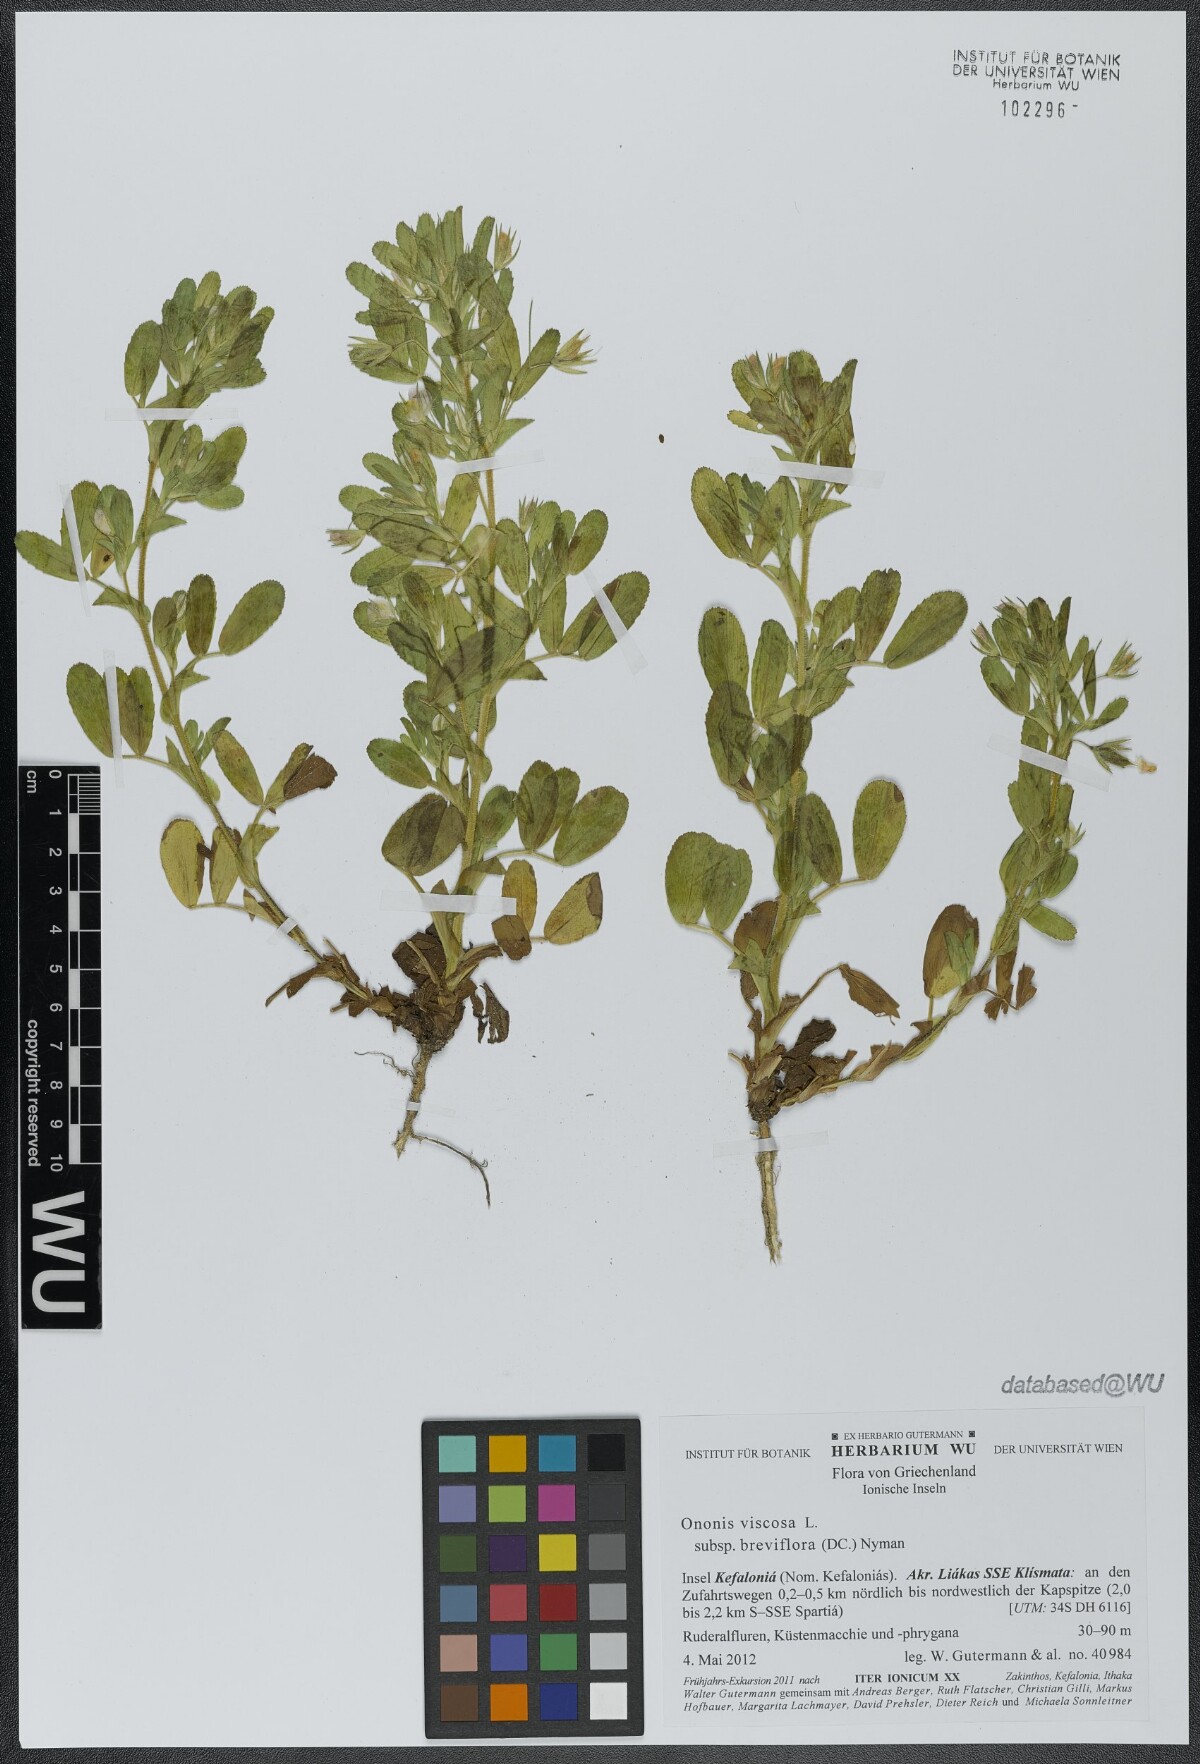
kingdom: Plantae
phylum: Tracheophyta
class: Magnoliopsida
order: Fabales
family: Fabaceae
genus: Ononis
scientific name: Ononis viscosa
